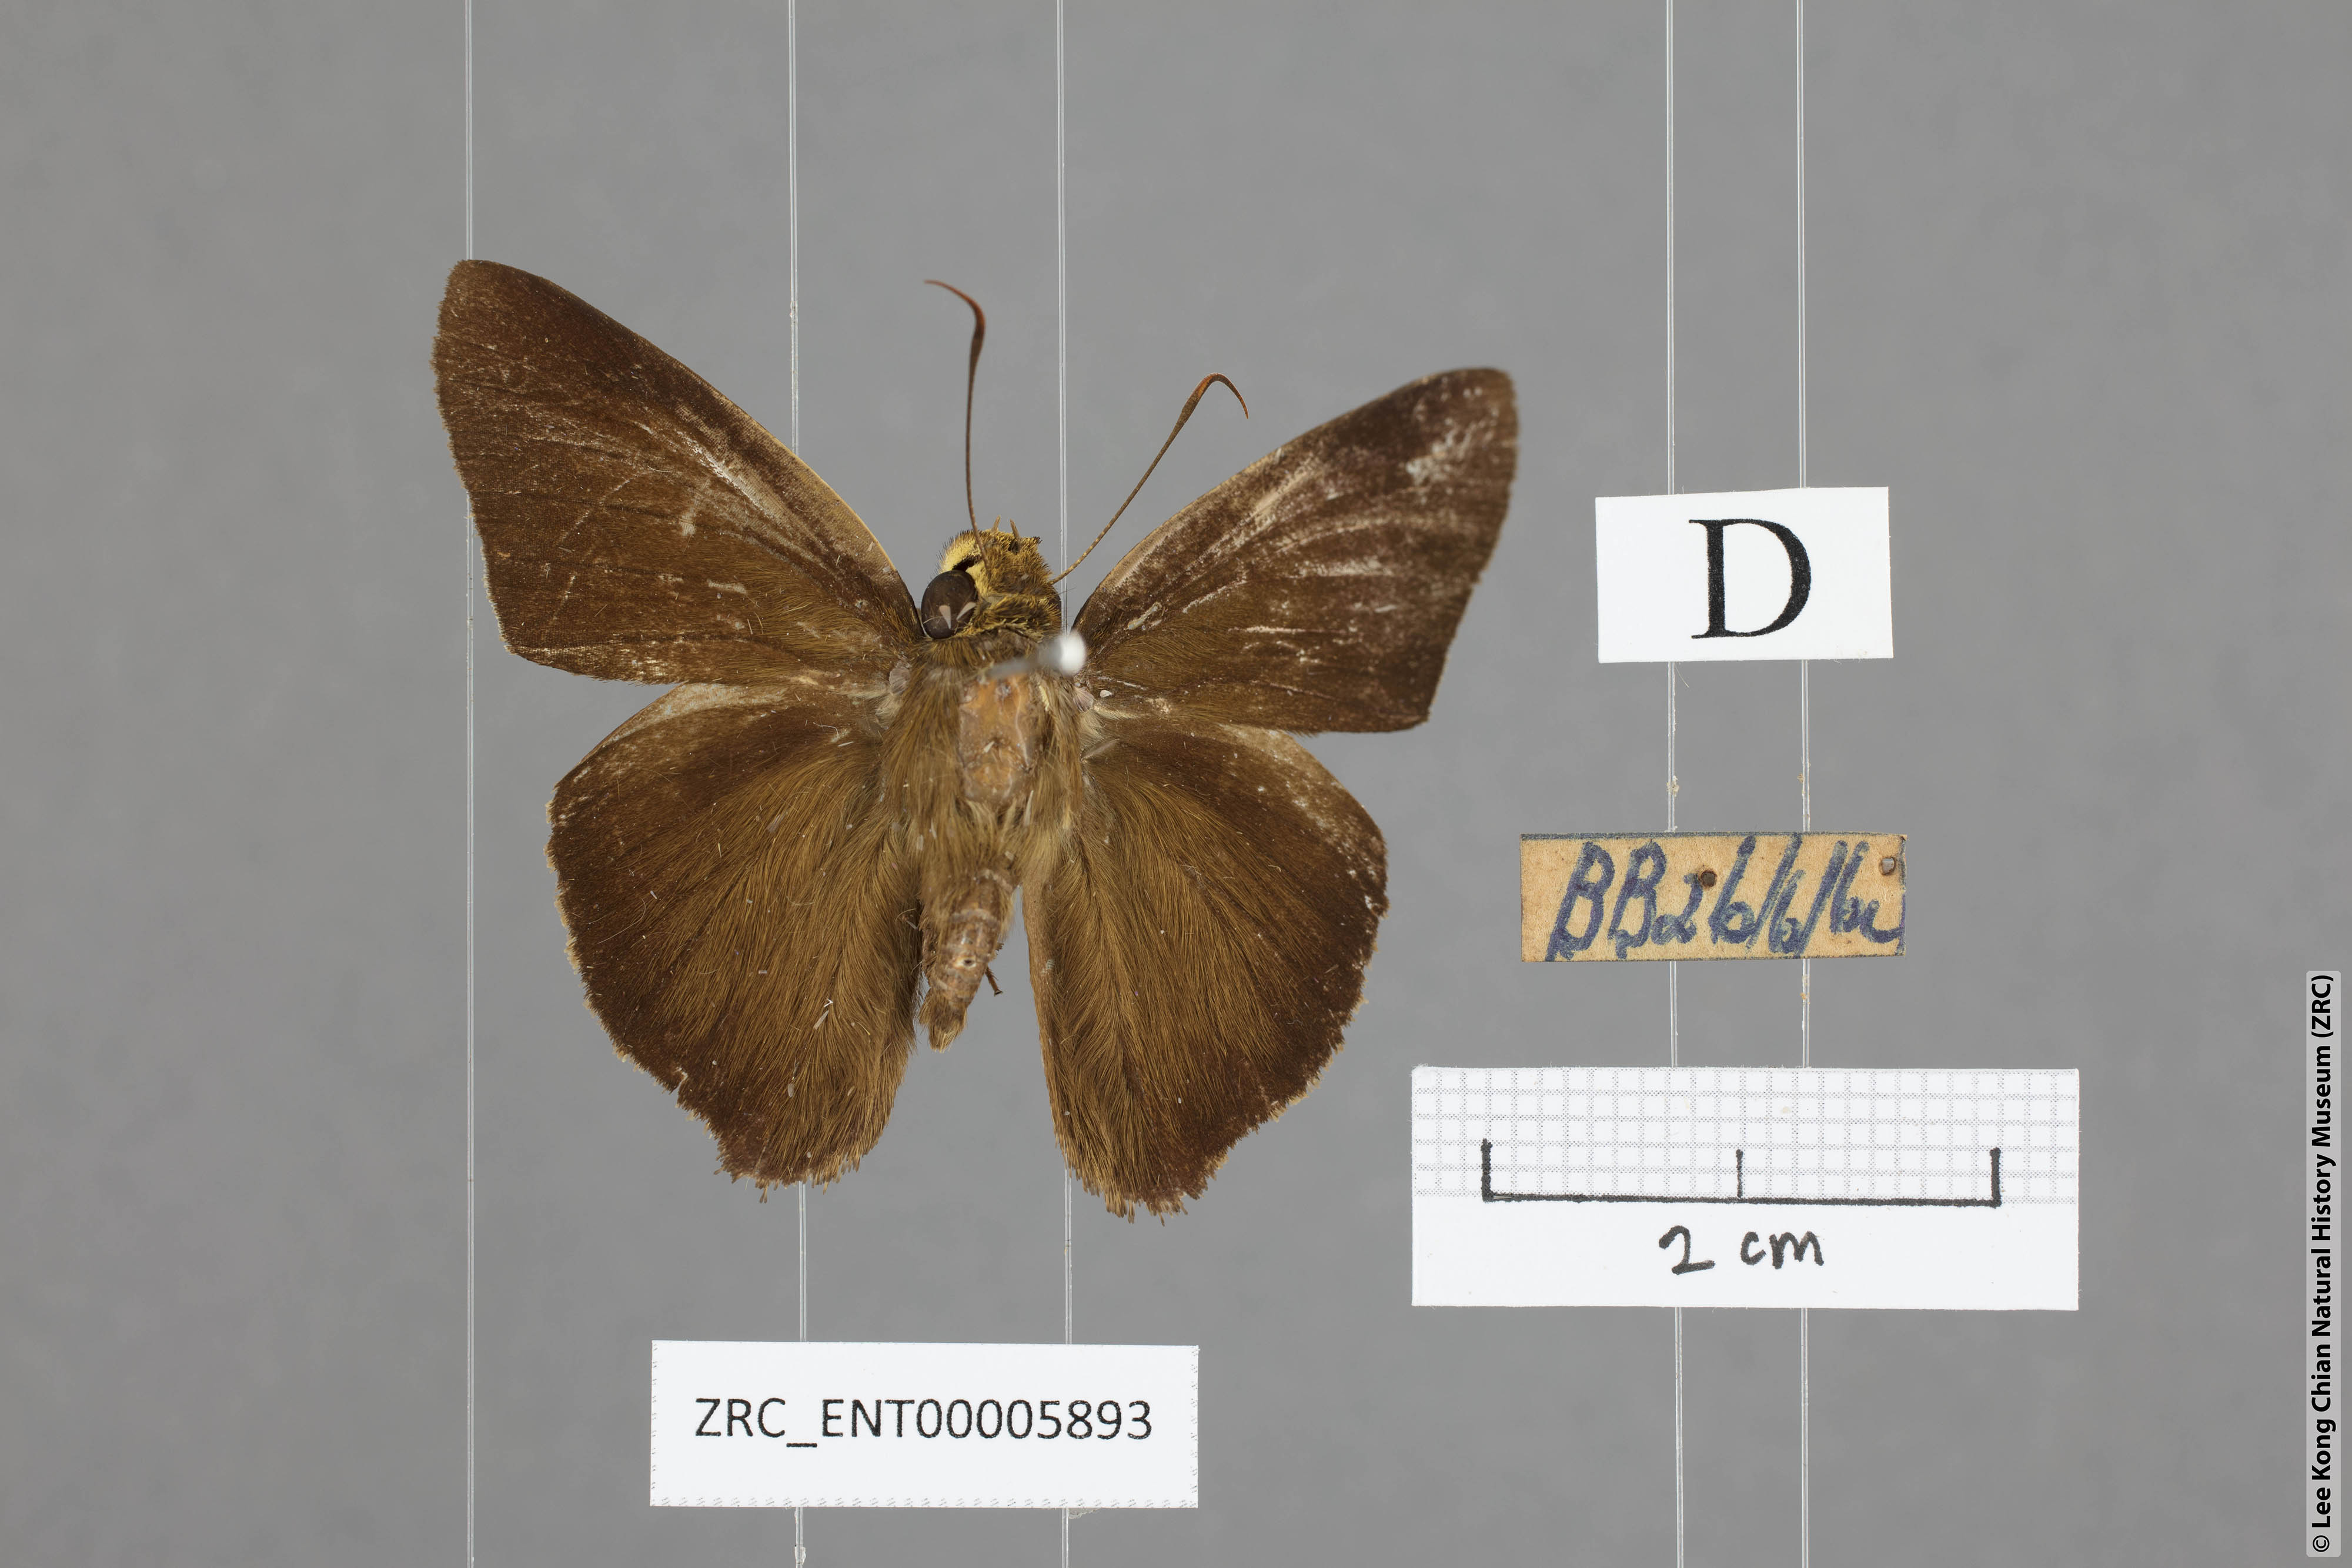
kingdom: Animalia
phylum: Arthropoda
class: Insecta
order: Lepidoptera
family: Hesperiidae
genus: Hasora
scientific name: Hasora quadripunctata
